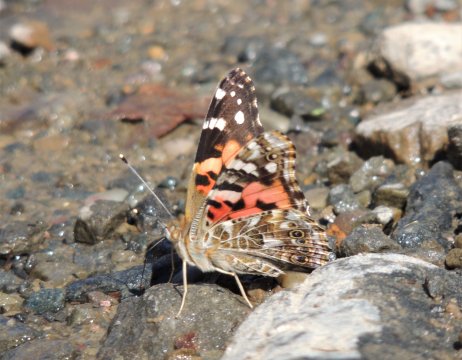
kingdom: Animalia
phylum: Arthropoda
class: Insecta
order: Lepidoptera
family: Nymphalidae
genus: Vanessa
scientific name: Vanessa cardui
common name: Painted Lady
